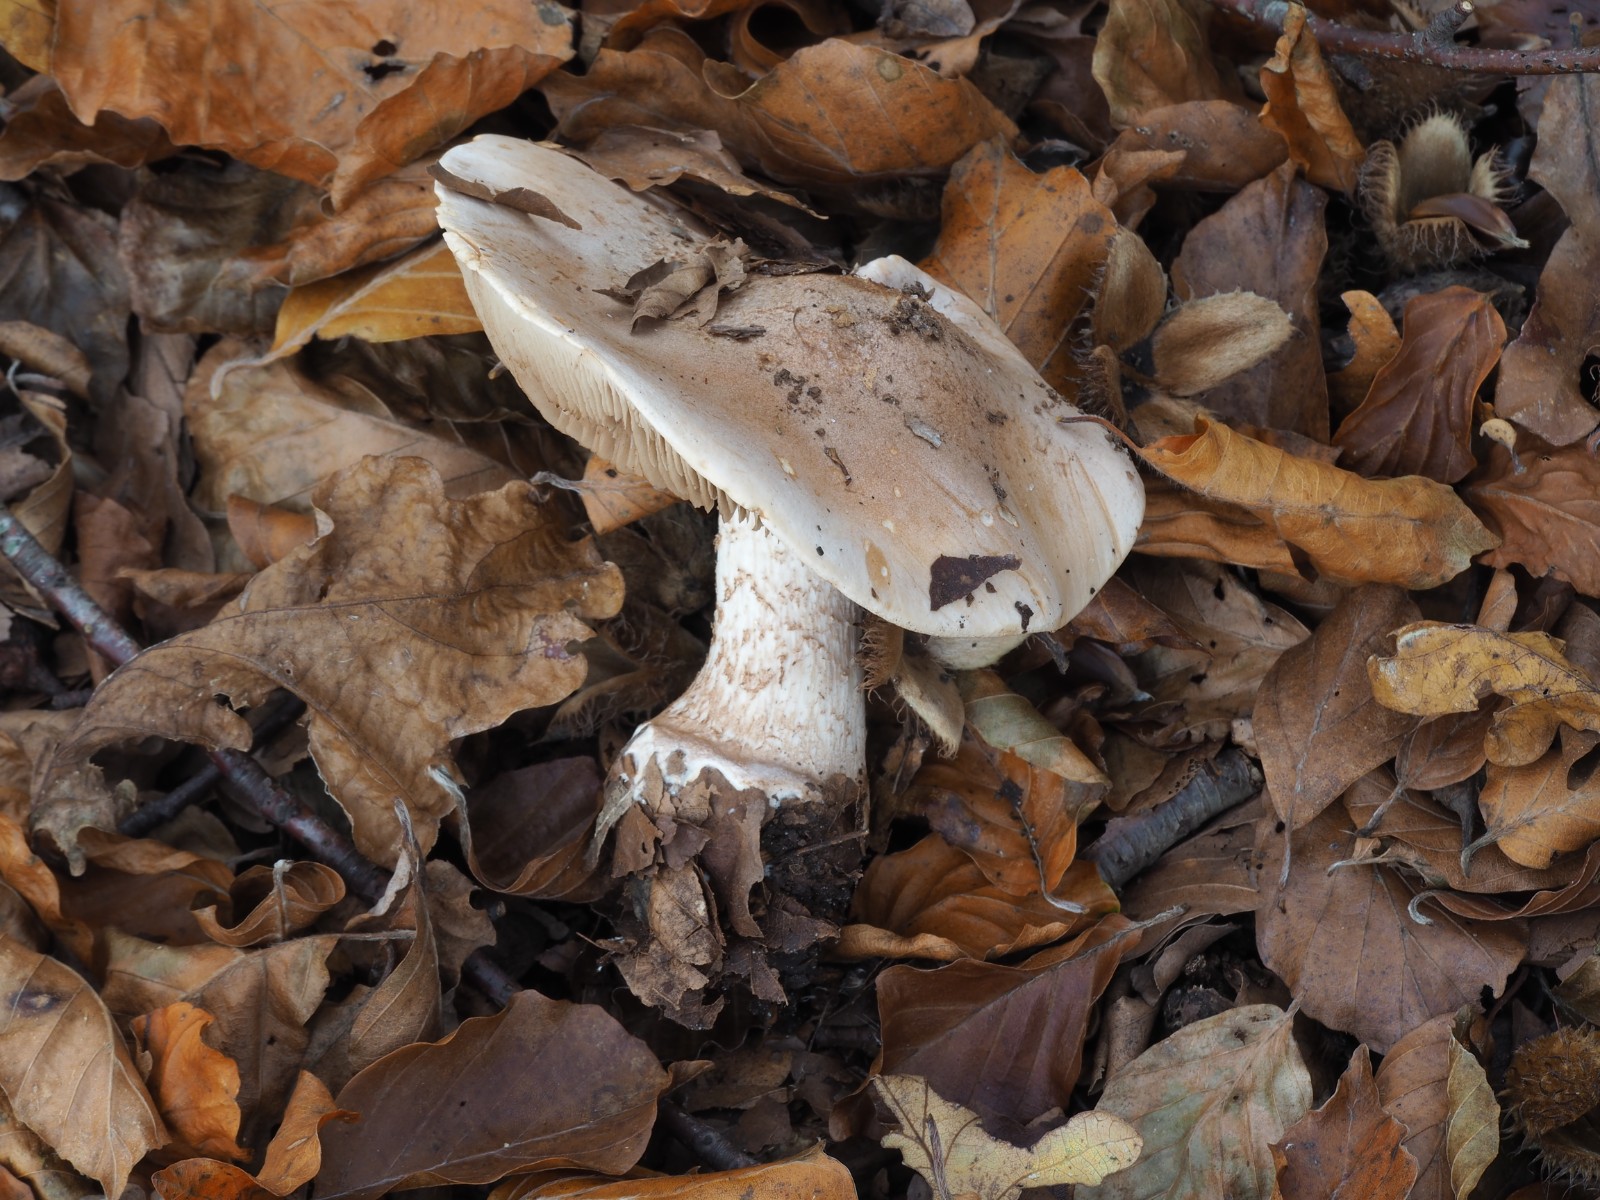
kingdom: Fungi
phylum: Basidiomycota
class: Agaricomycetes
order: Agaricales
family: Hymenogastraceae
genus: Hebeloma
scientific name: Hebeloma sinapizans
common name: ræddike-tåreblad
